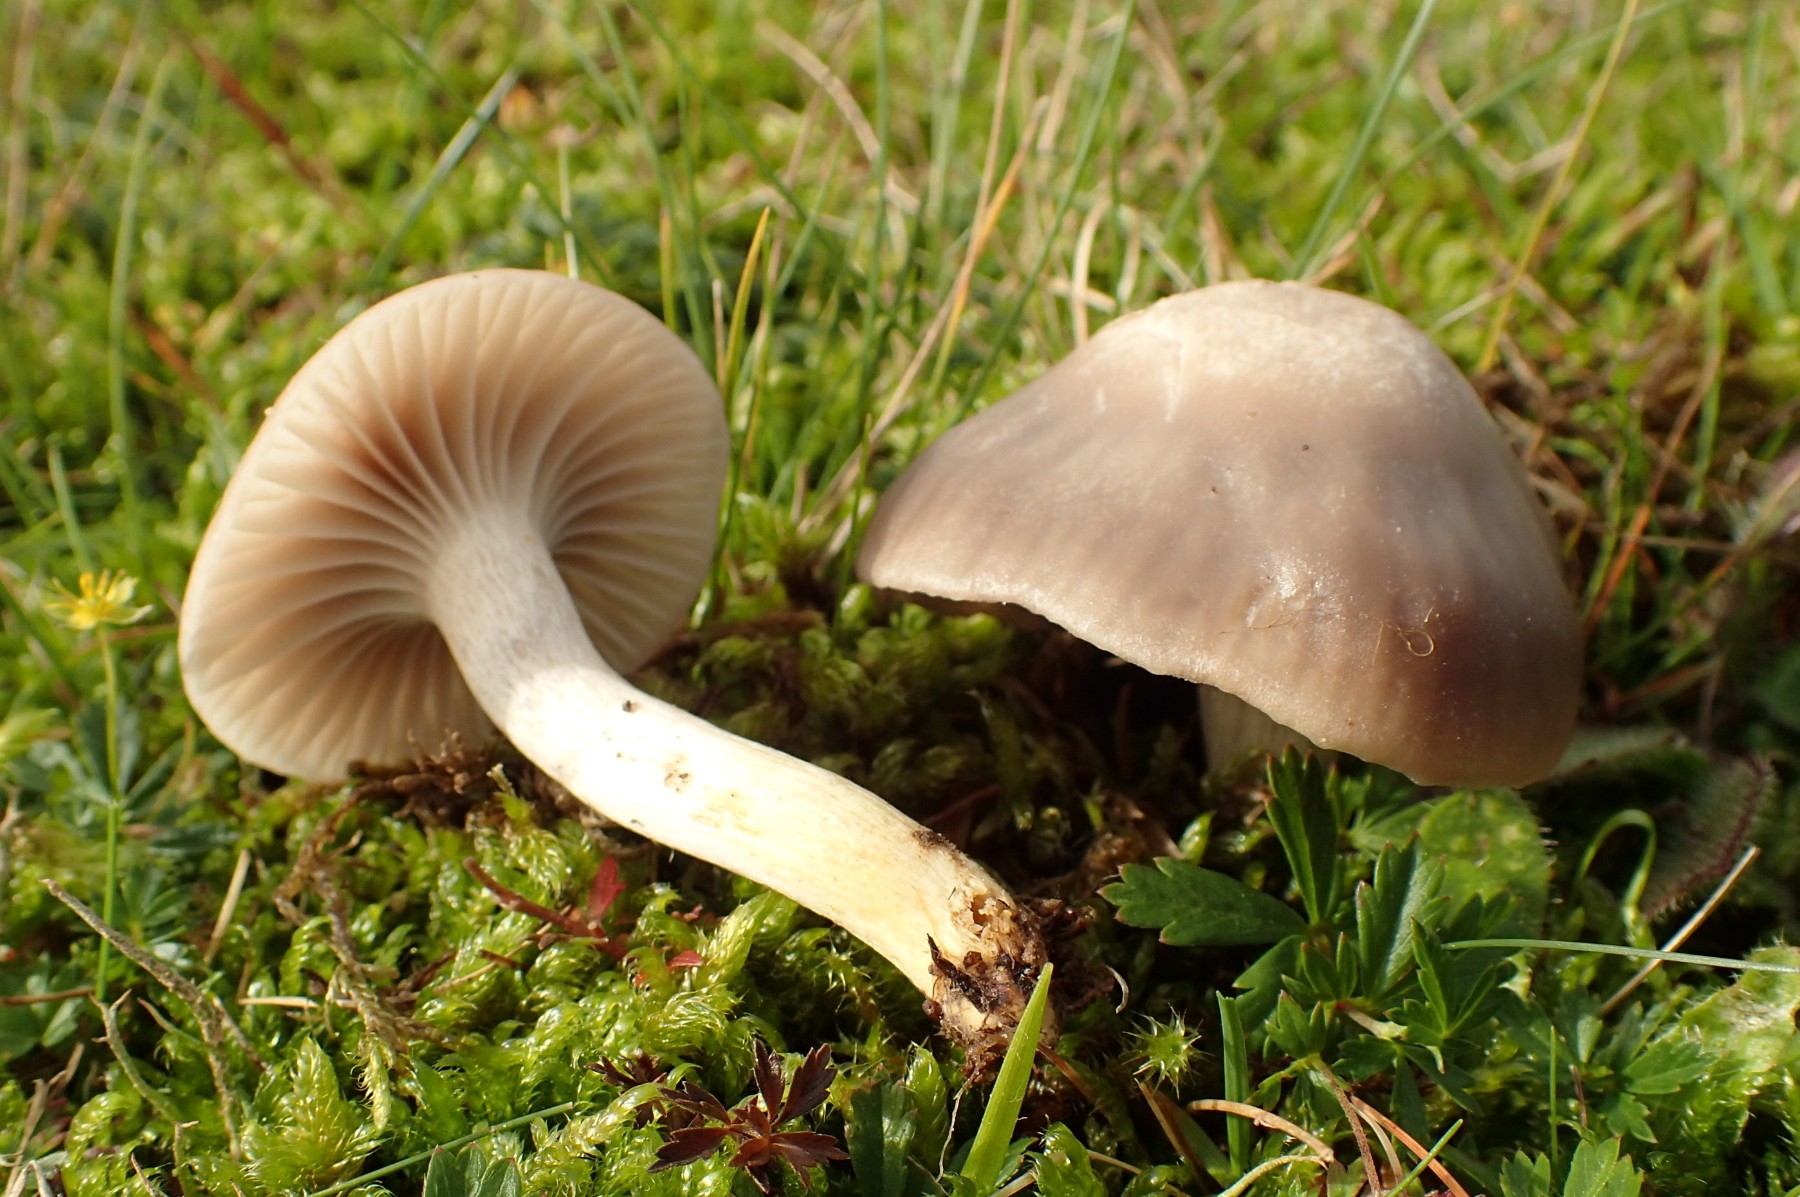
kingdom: Fungi
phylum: Basidiomycota
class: Agaricomycetes
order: Agaricales
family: Hygrophoraceae
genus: Cuphophyllus
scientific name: Cuphophyllus flavipes
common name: gulfodet vokshat
